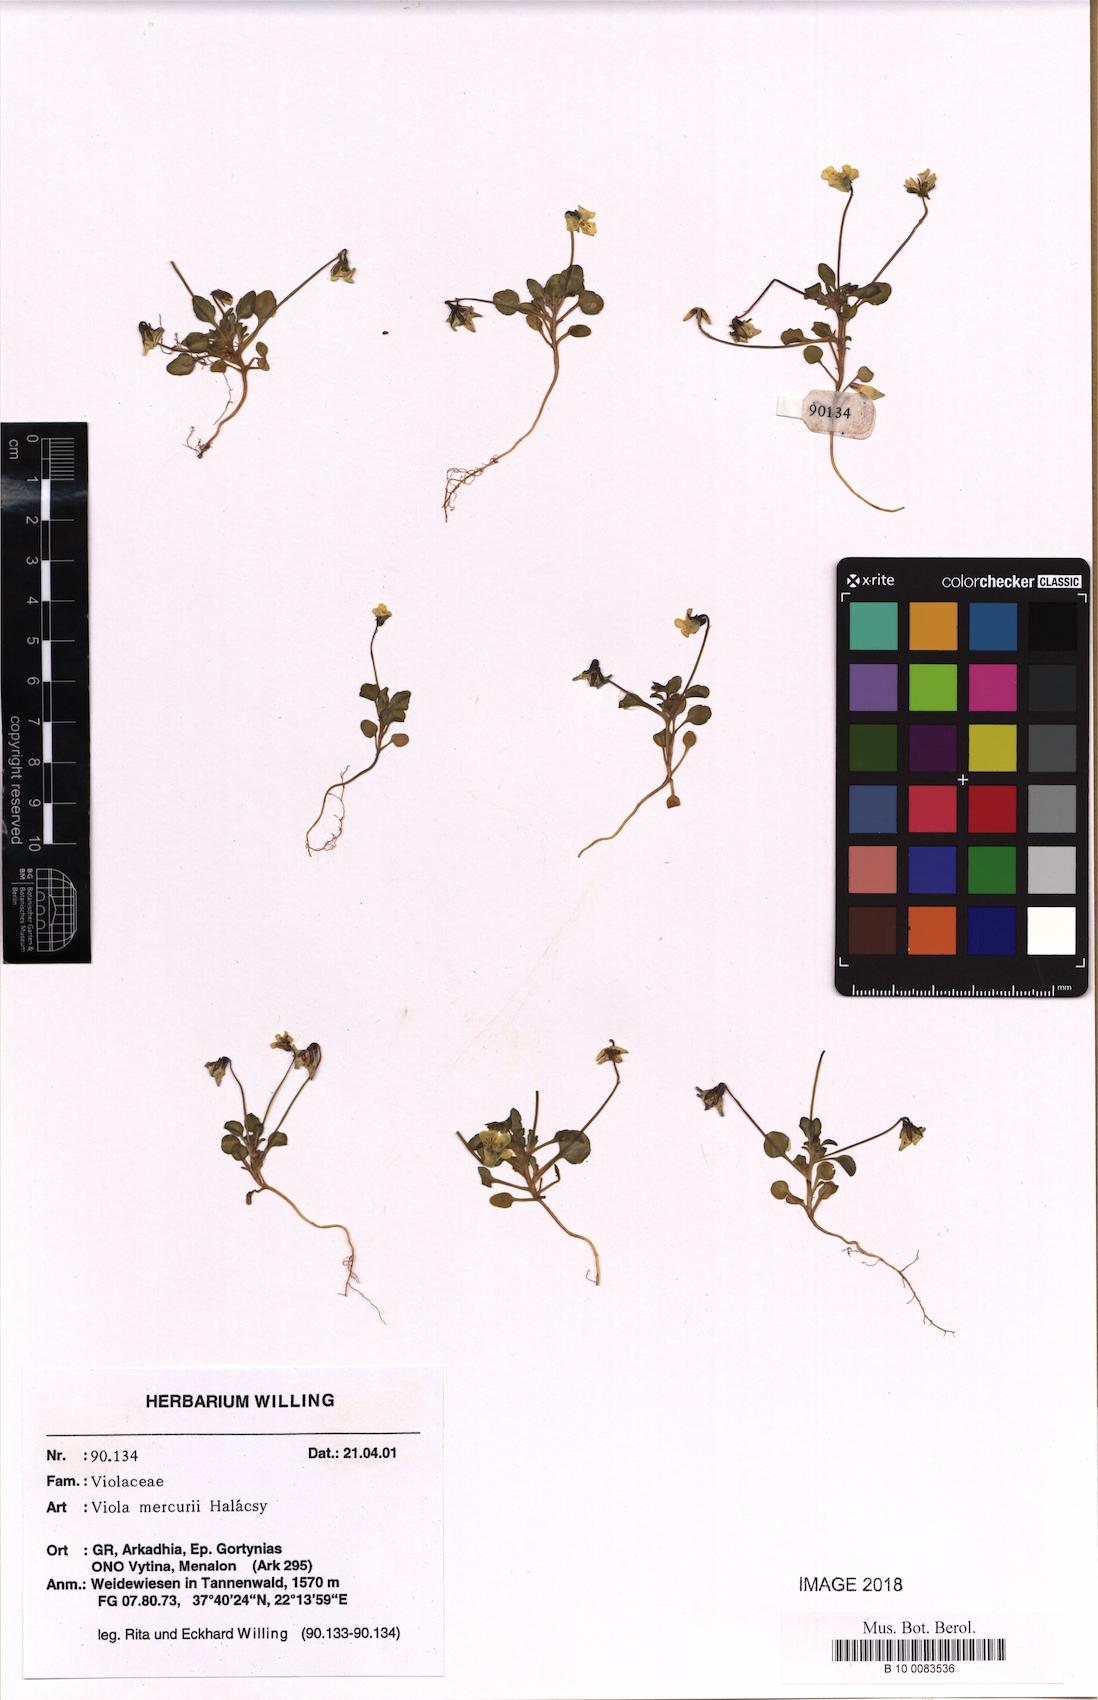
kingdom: Plantae
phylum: Tracheophyta
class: Magnoliopsida
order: Malpighiales
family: Violaceae
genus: Viola
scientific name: Viola mercurii
